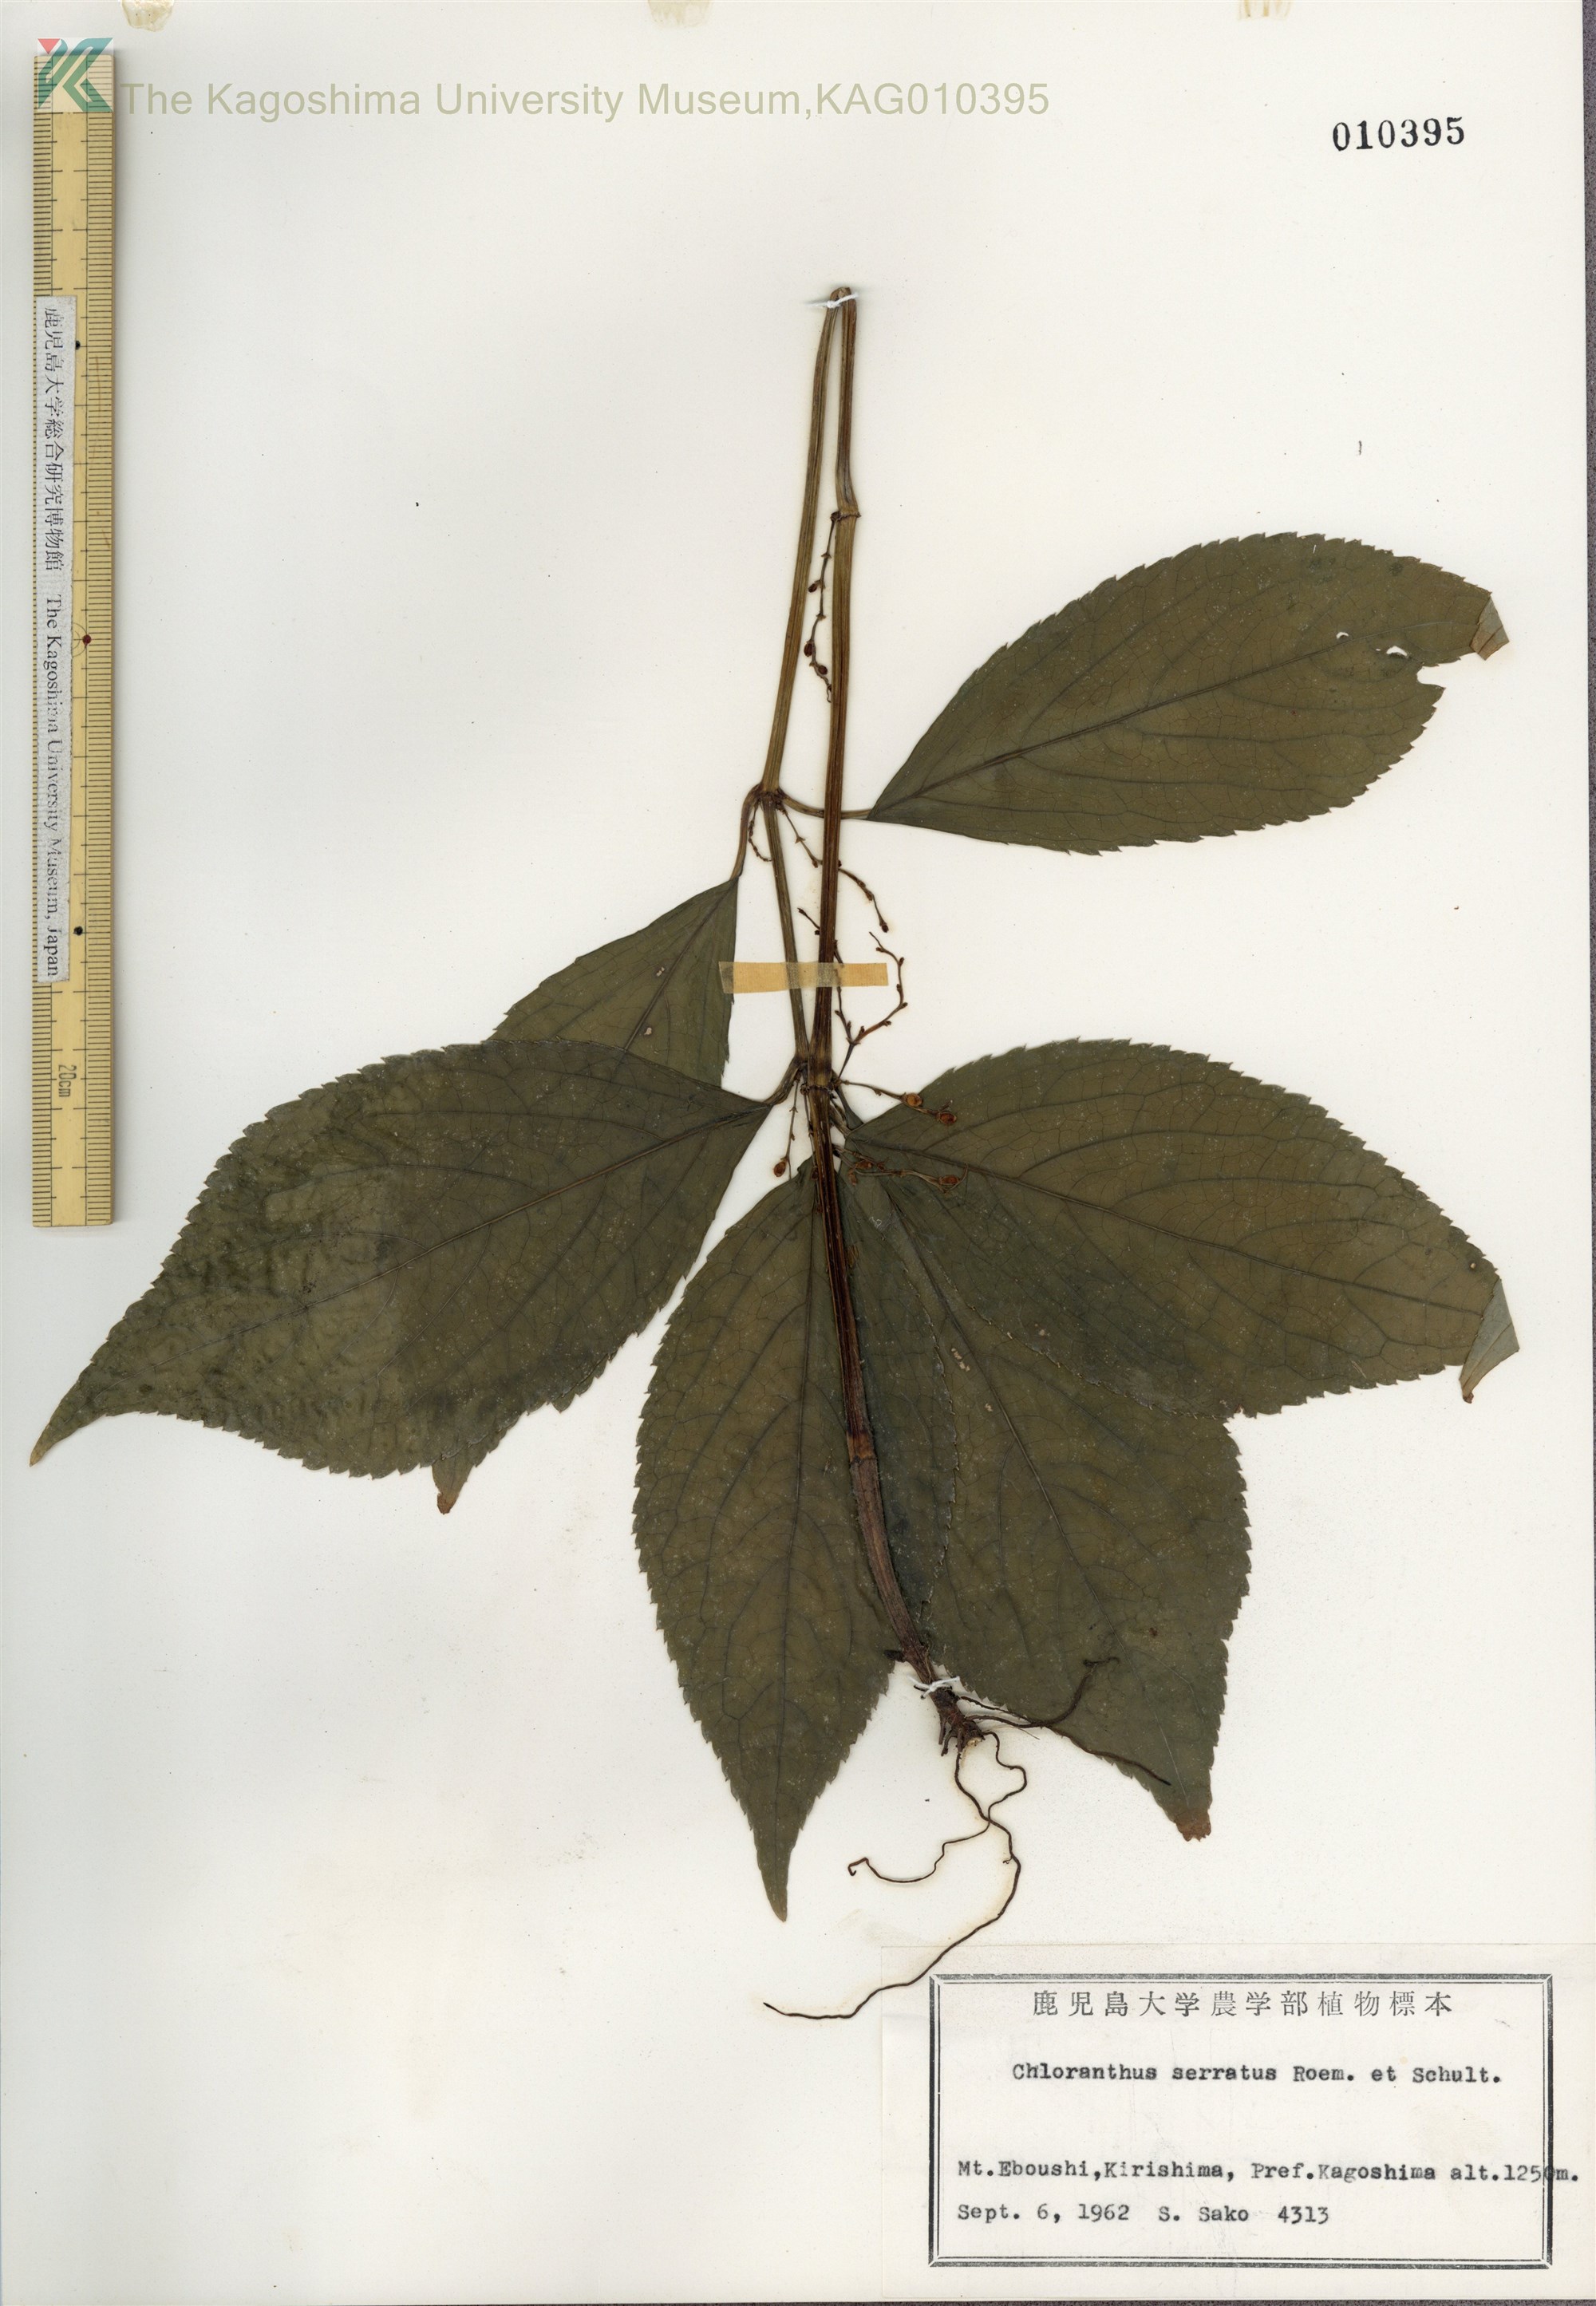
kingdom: Plantae
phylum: Tracheophyta
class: Magnoliopsida
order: Chloranthales
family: Chloranthaceae
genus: Chloranthus
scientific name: Chloranthus serratus
